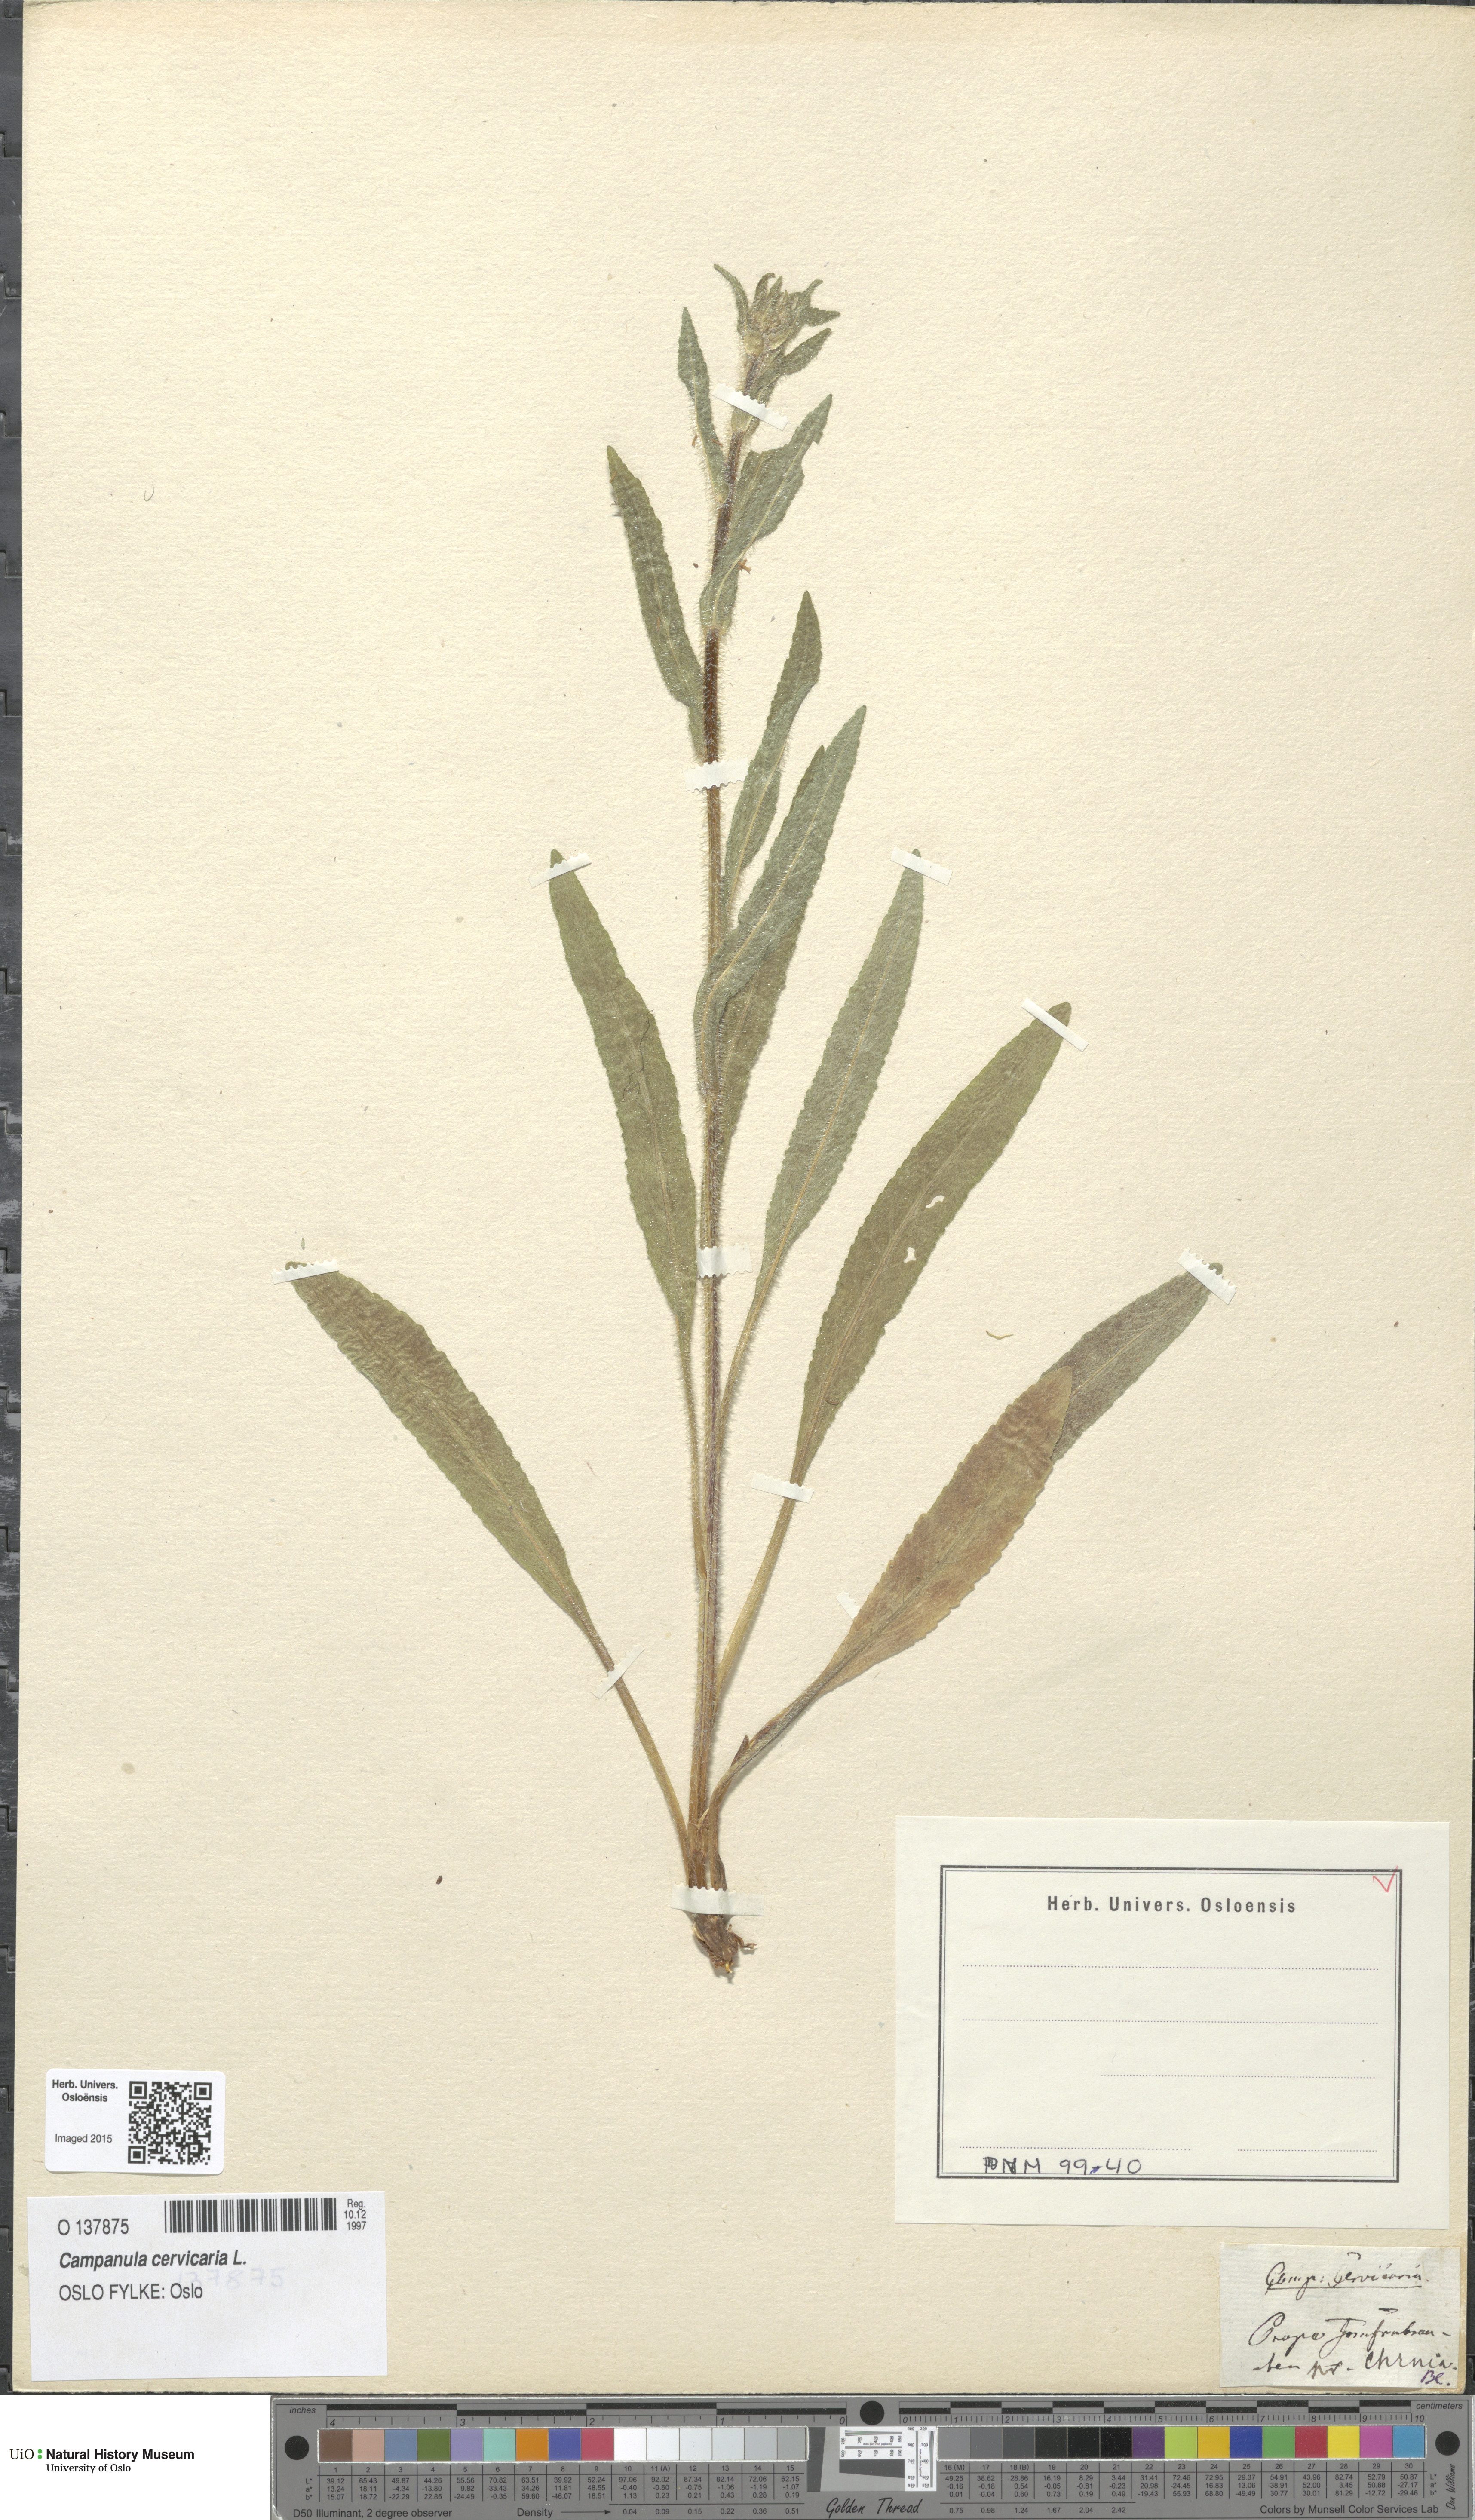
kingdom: Plantae
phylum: Tracheophyta
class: Magnoliopsida
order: Asterales
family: Campanulaceae
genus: Campanula
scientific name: Campanula cervicaria
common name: Bristly bellflower
